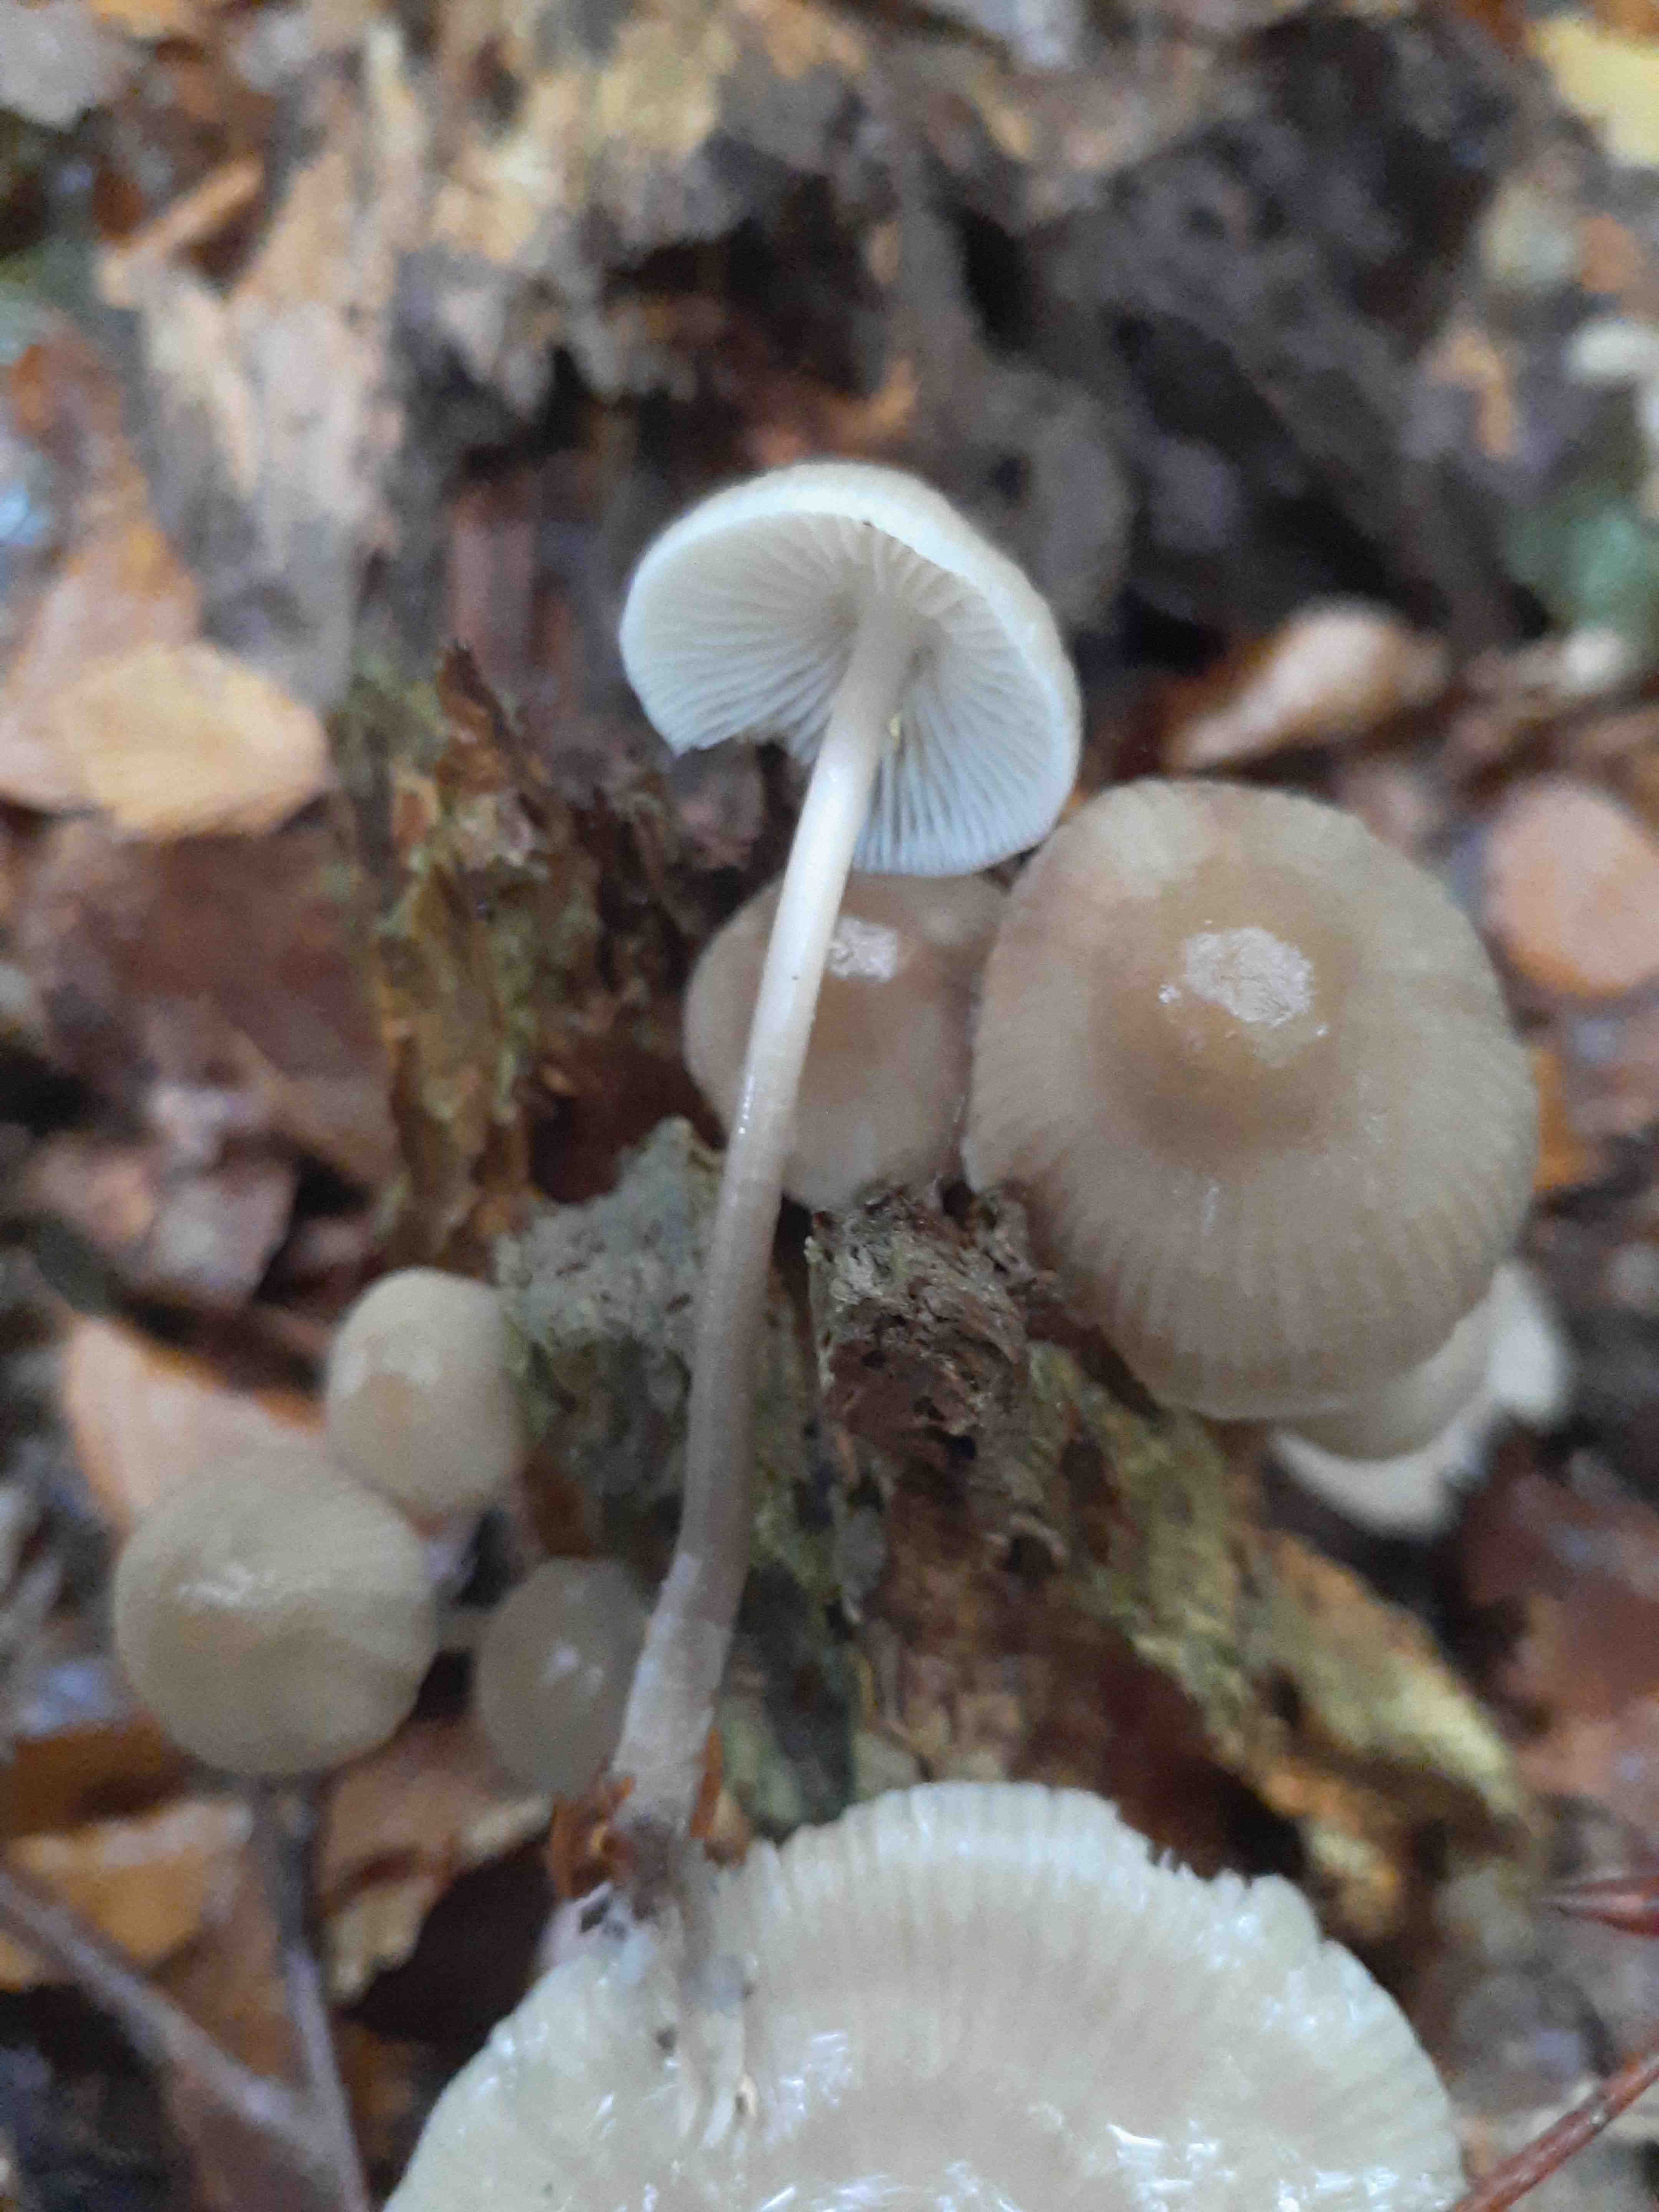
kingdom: Fungi
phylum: Basidiomycota
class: Agaricomycetes
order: Agaricales
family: Mycenaceae
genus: Mycena
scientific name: Mycena galericulata
